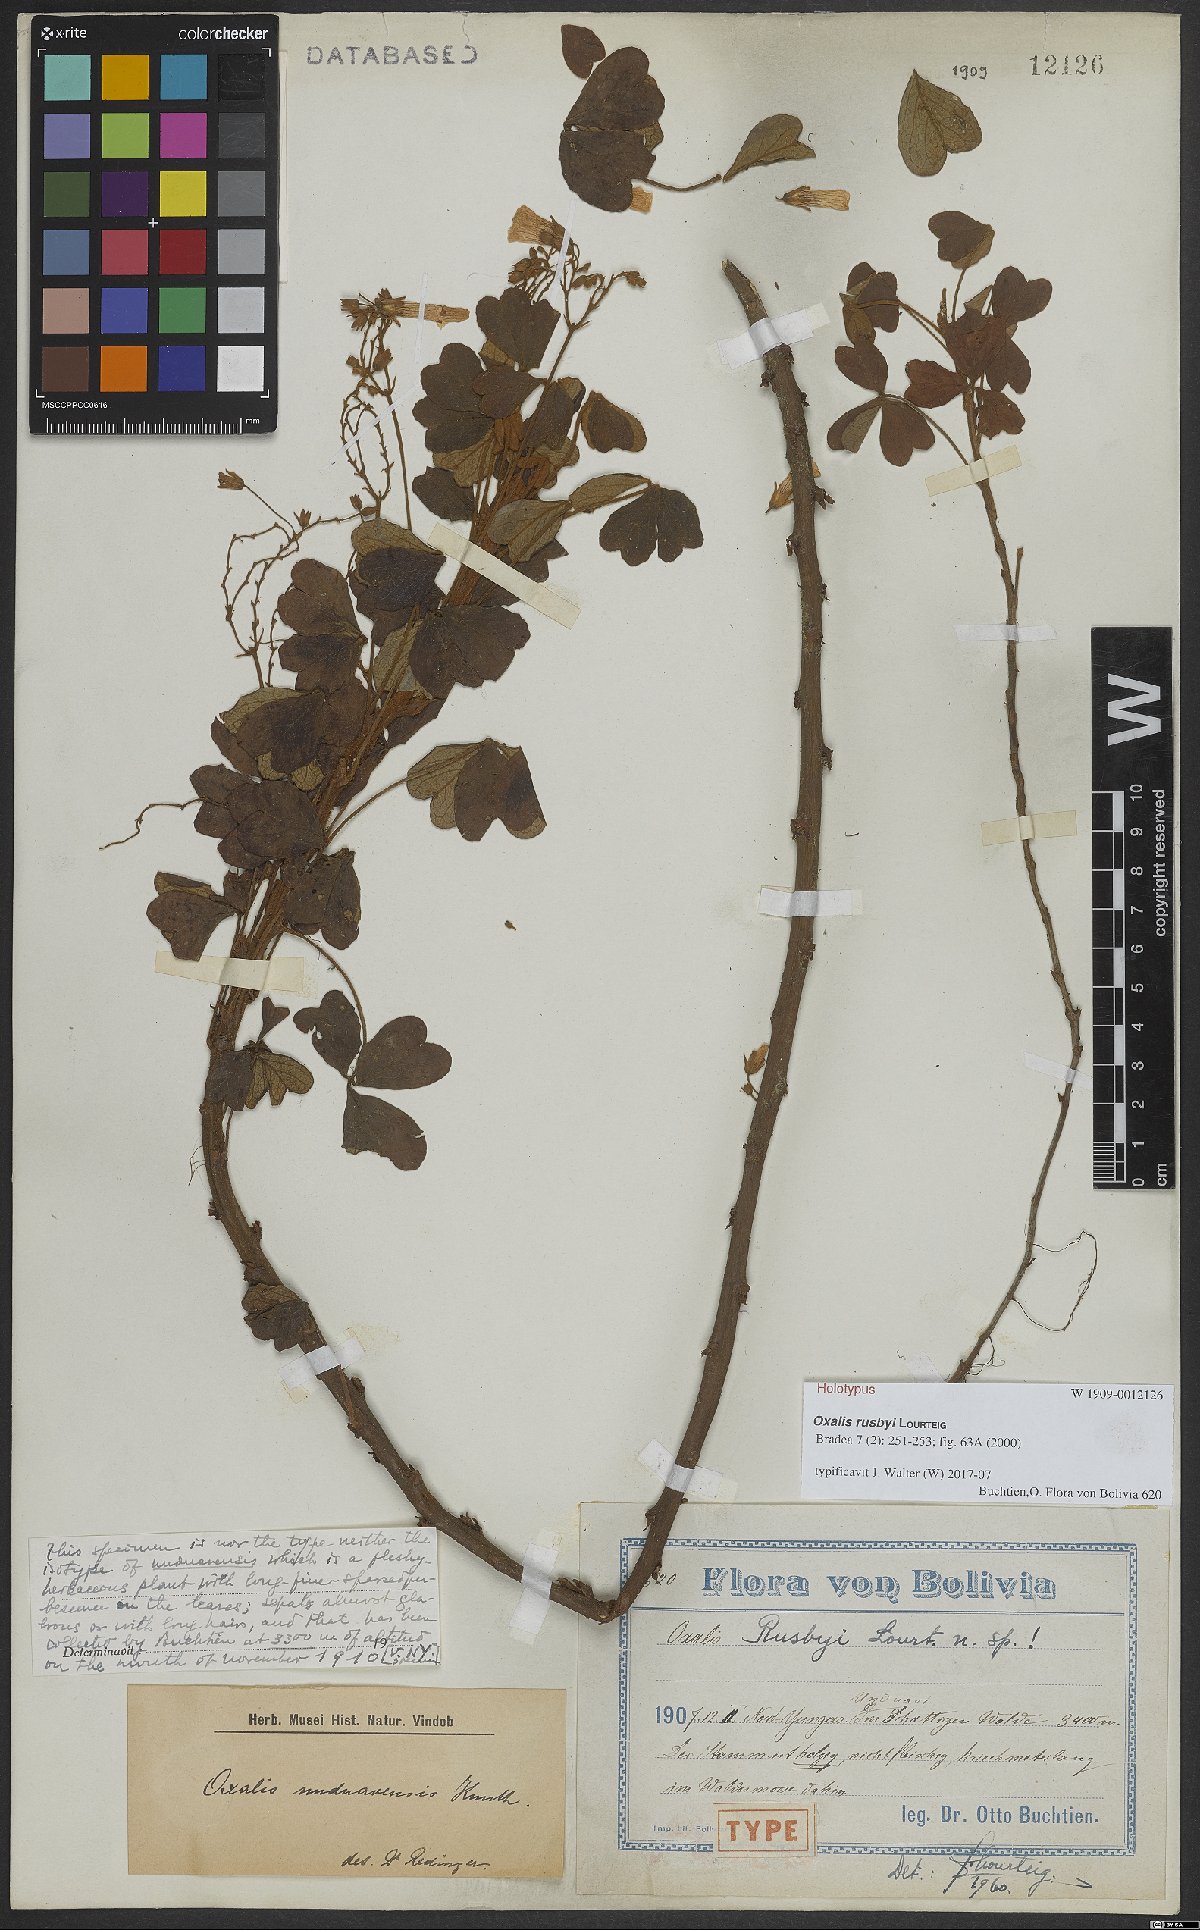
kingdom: Plantae
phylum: Tracheophyta
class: Magnoliopsida
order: Oxalidales
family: Oxalidaceae
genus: Oxalis
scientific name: Oxalis rusbyi
